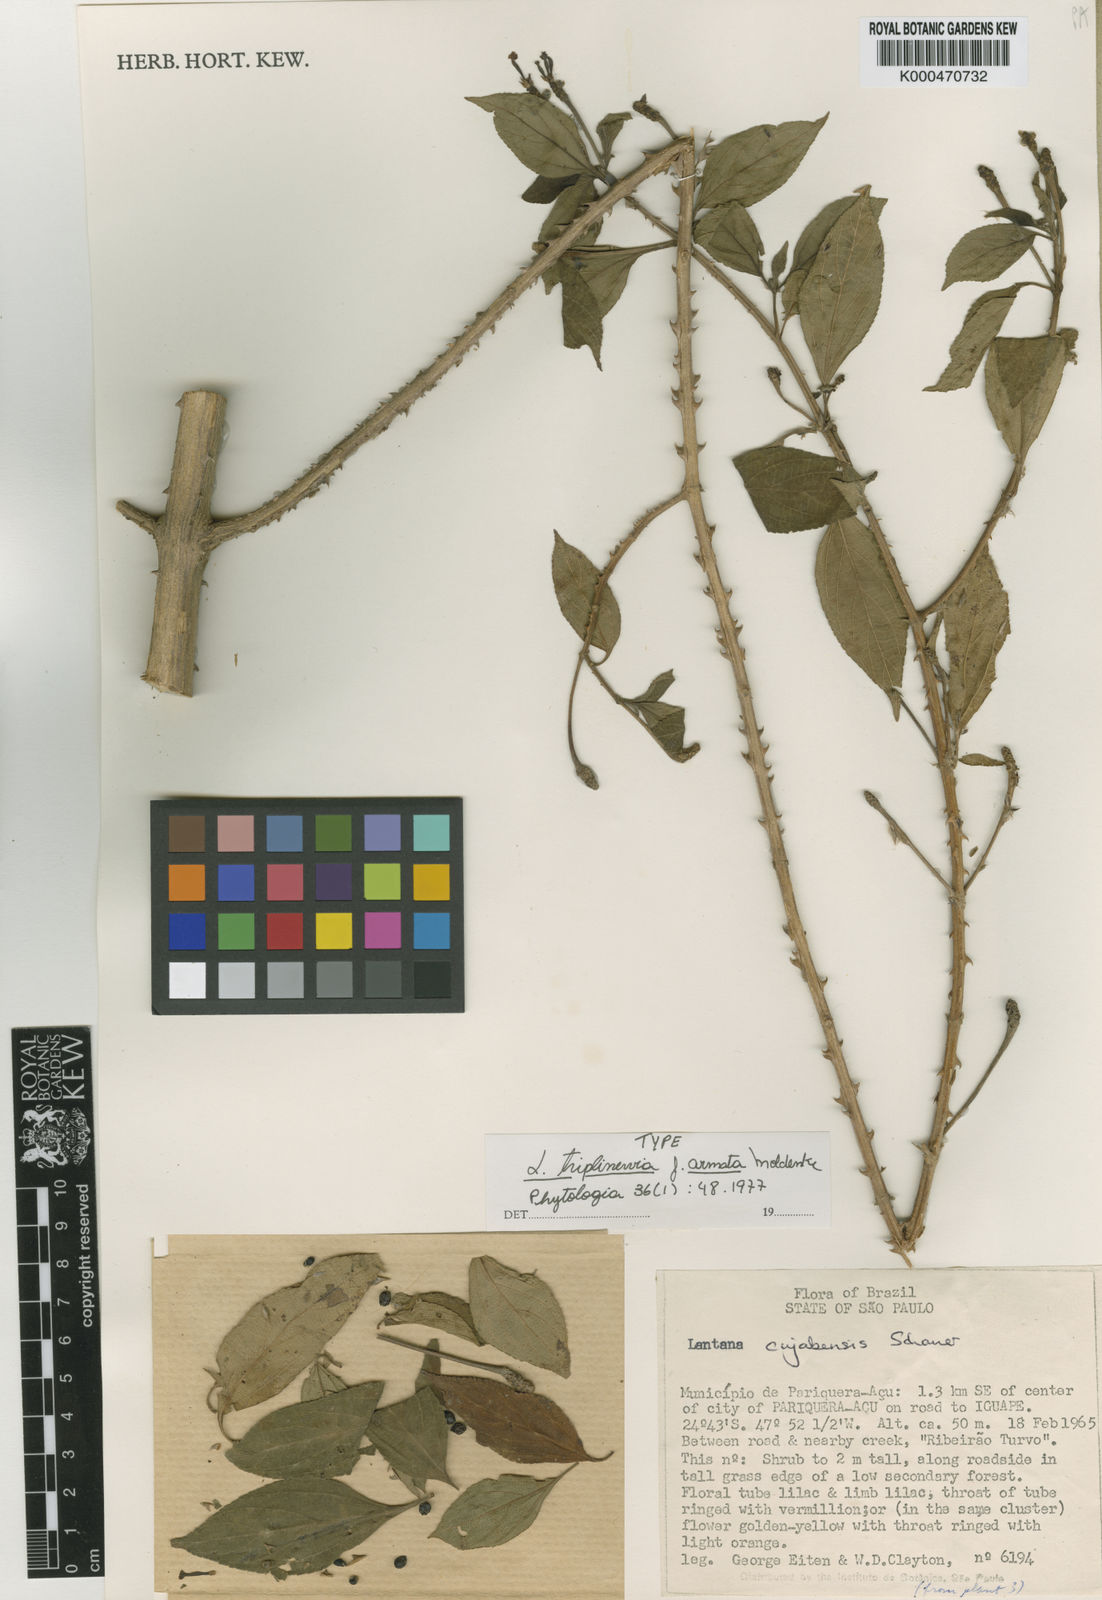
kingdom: Plantae
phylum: Tracheophyta
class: Magnoliopsida
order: Lamiales
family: Verbenaceae
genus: Lantana
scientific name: Lantana nivea
